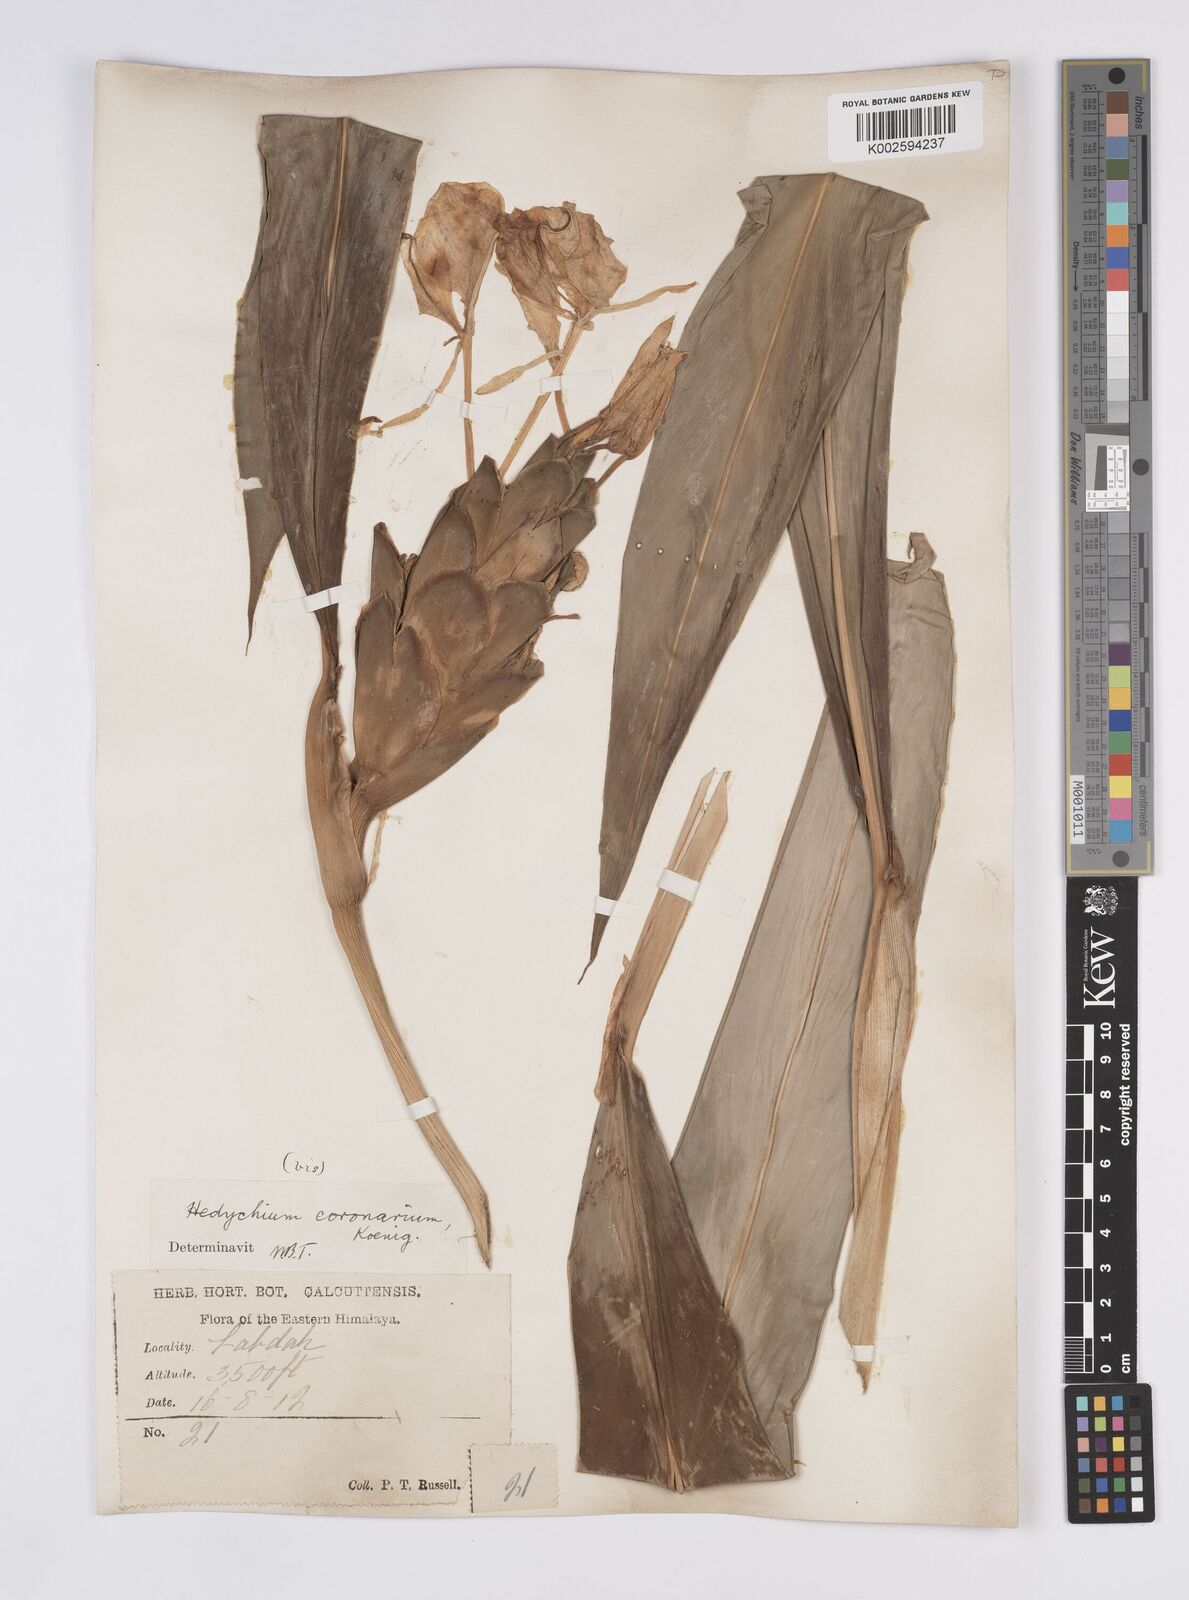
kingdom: Plantae
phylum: Tracheophyta
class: Liliopsida
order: Zingiberales
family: Zingiberaceae
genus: Hedychium
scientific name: Hedychium coronarium
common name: White garland-lily
